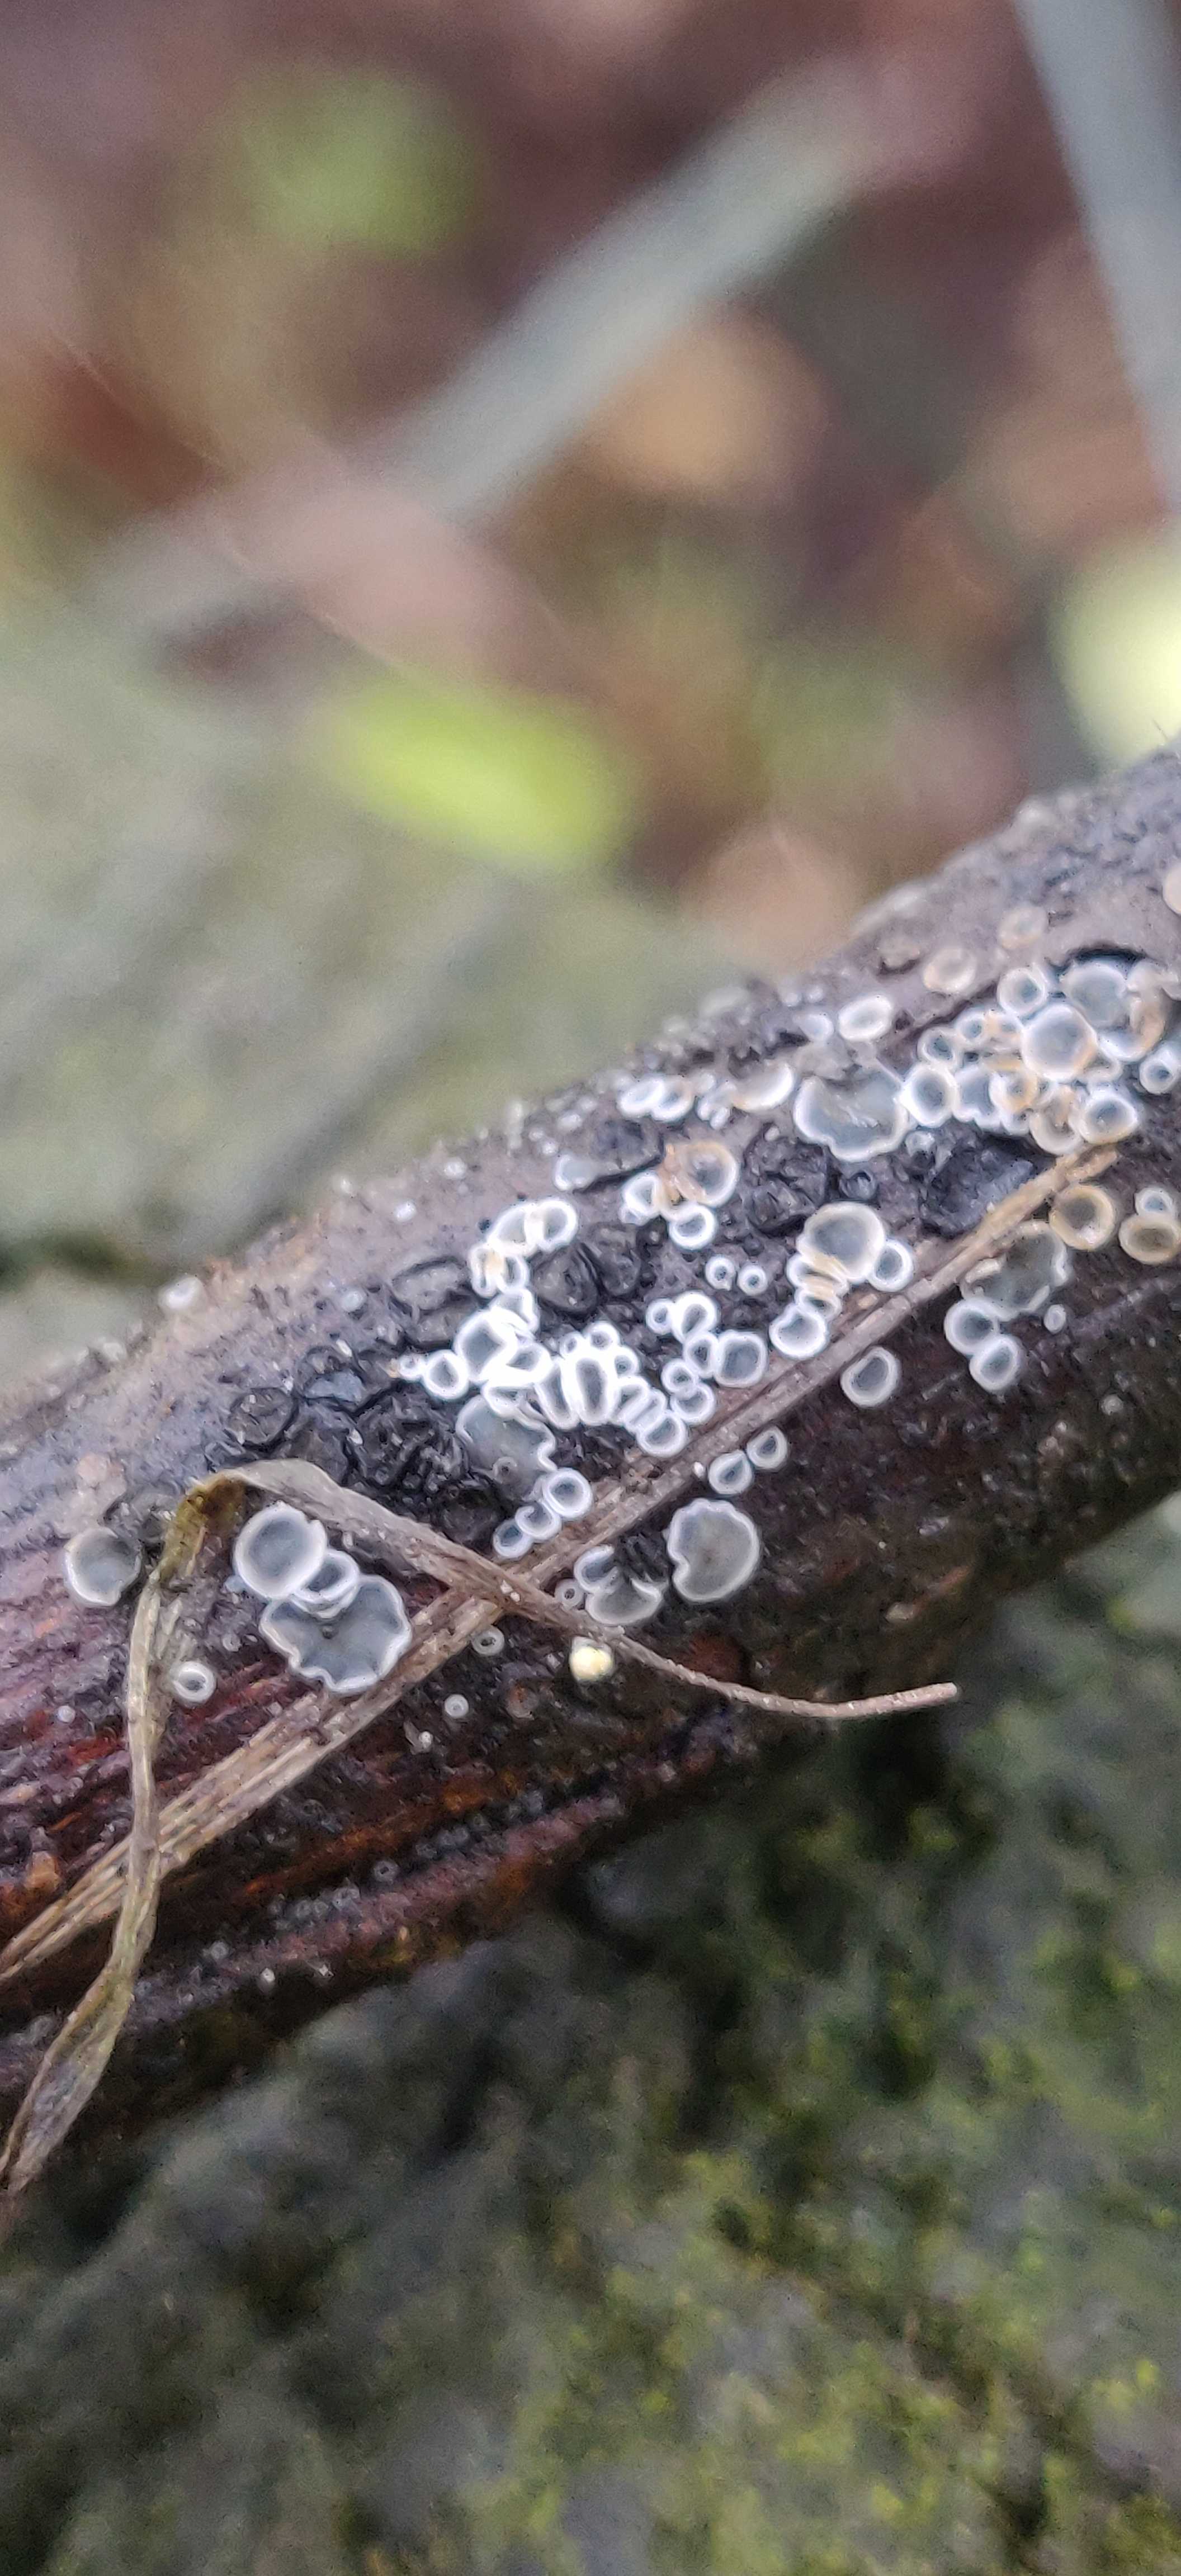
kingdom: Fungi
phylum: Ascomycota
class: Leotiomycetes
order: Helotiales
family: Mollisiaceae
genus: Mollisia
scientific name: Mollisia
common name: gråskive
